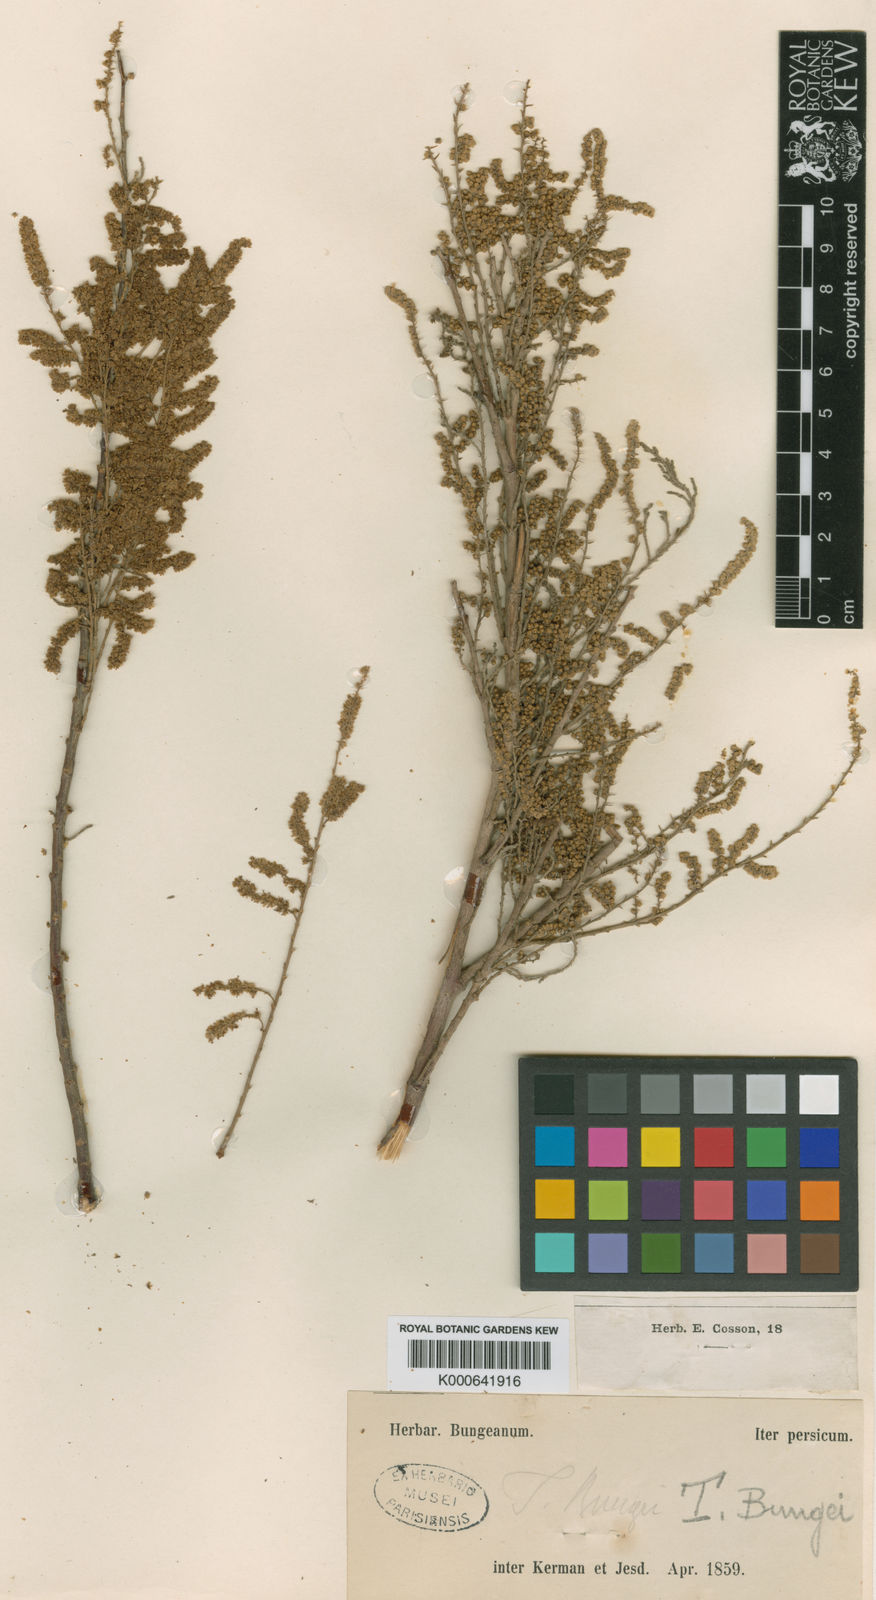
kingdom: Plantae
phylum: Tracheophyta
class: Magnoliopsida
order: Caryophyllales
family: Tamaricaceae
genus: Tamarix
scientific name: Tamarix aralensis
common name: Russian tamarisk
